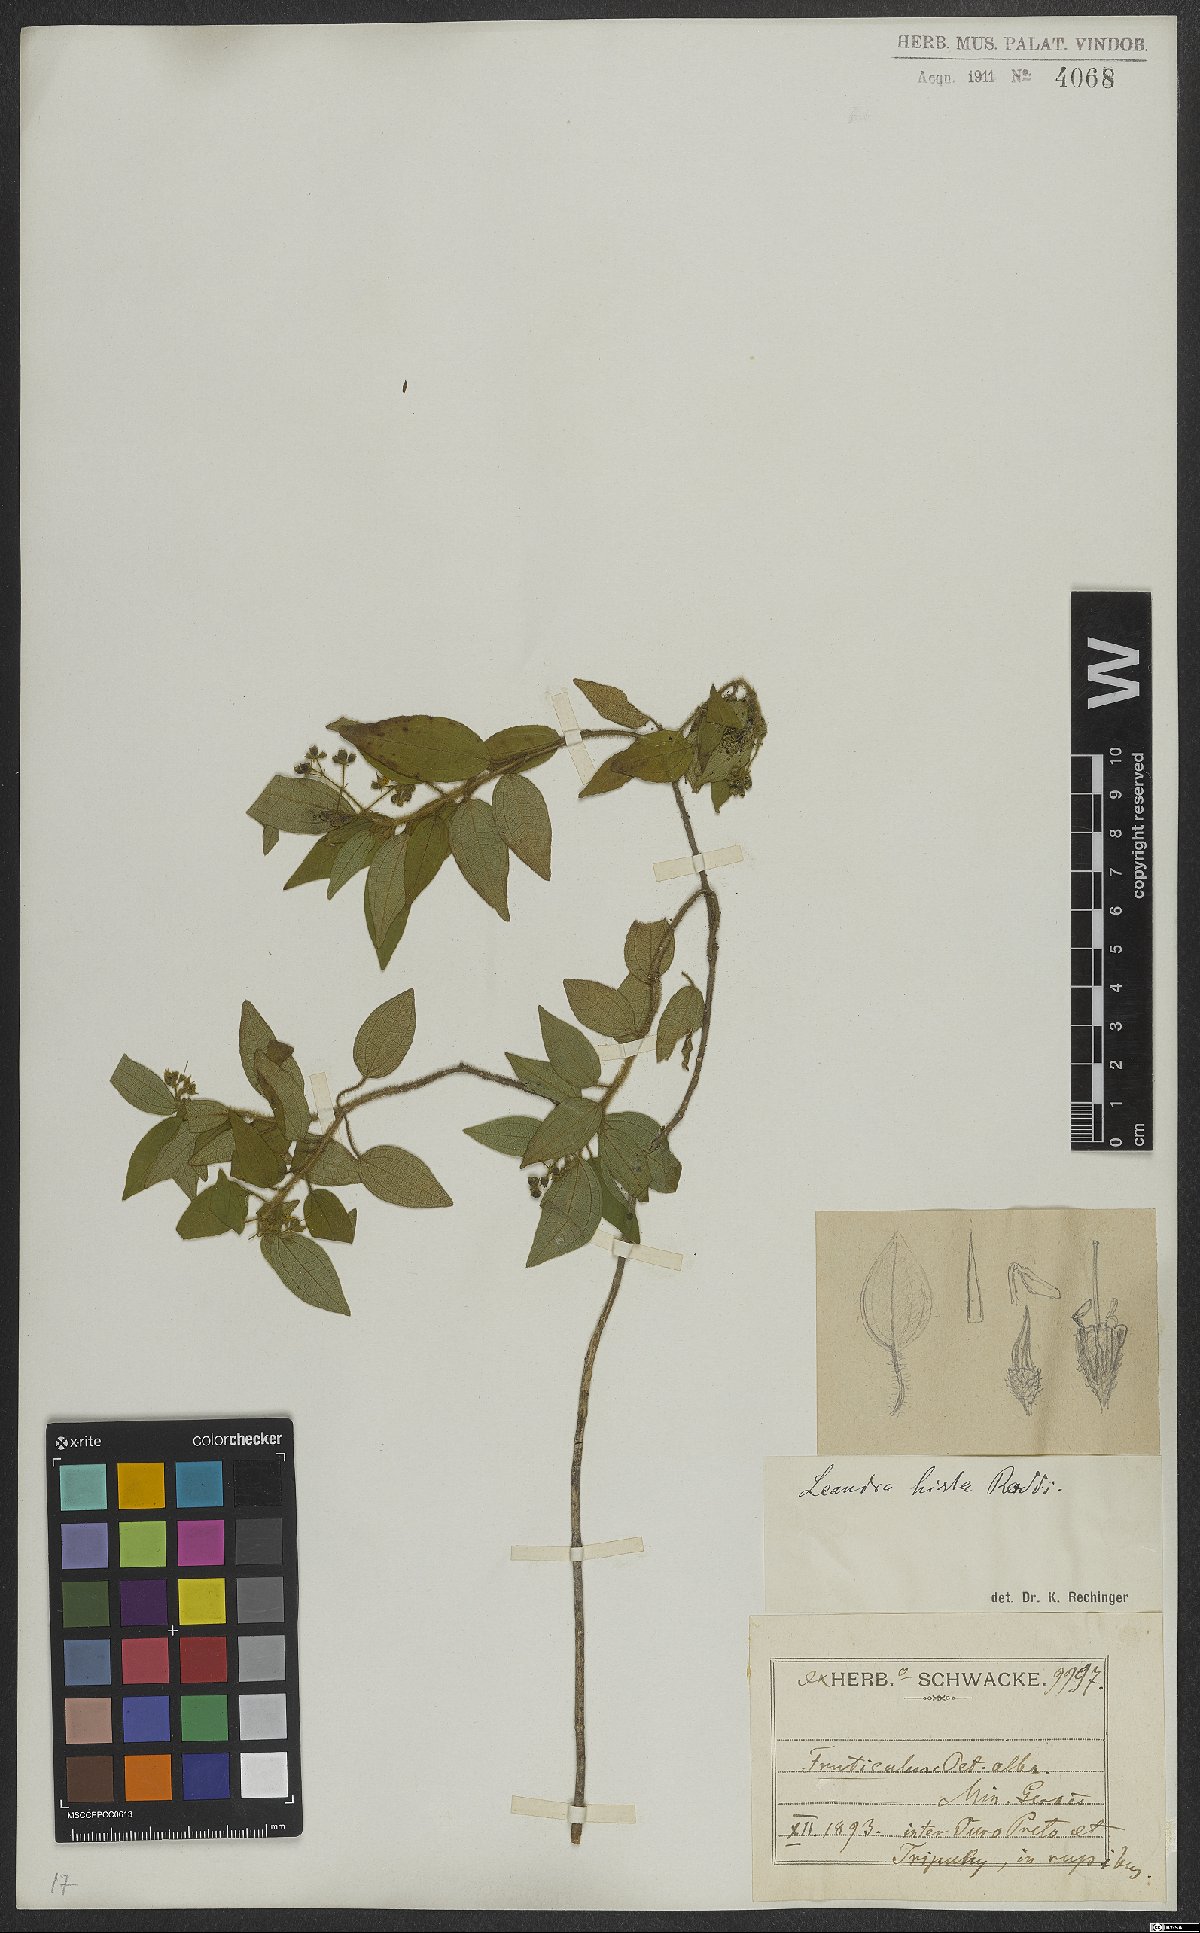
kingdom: Plantae
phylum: Tracheophyta
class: Magnoliopsida
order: Myrtales
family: Melastomataceae
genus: Miconia
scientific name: Miconia dubia
